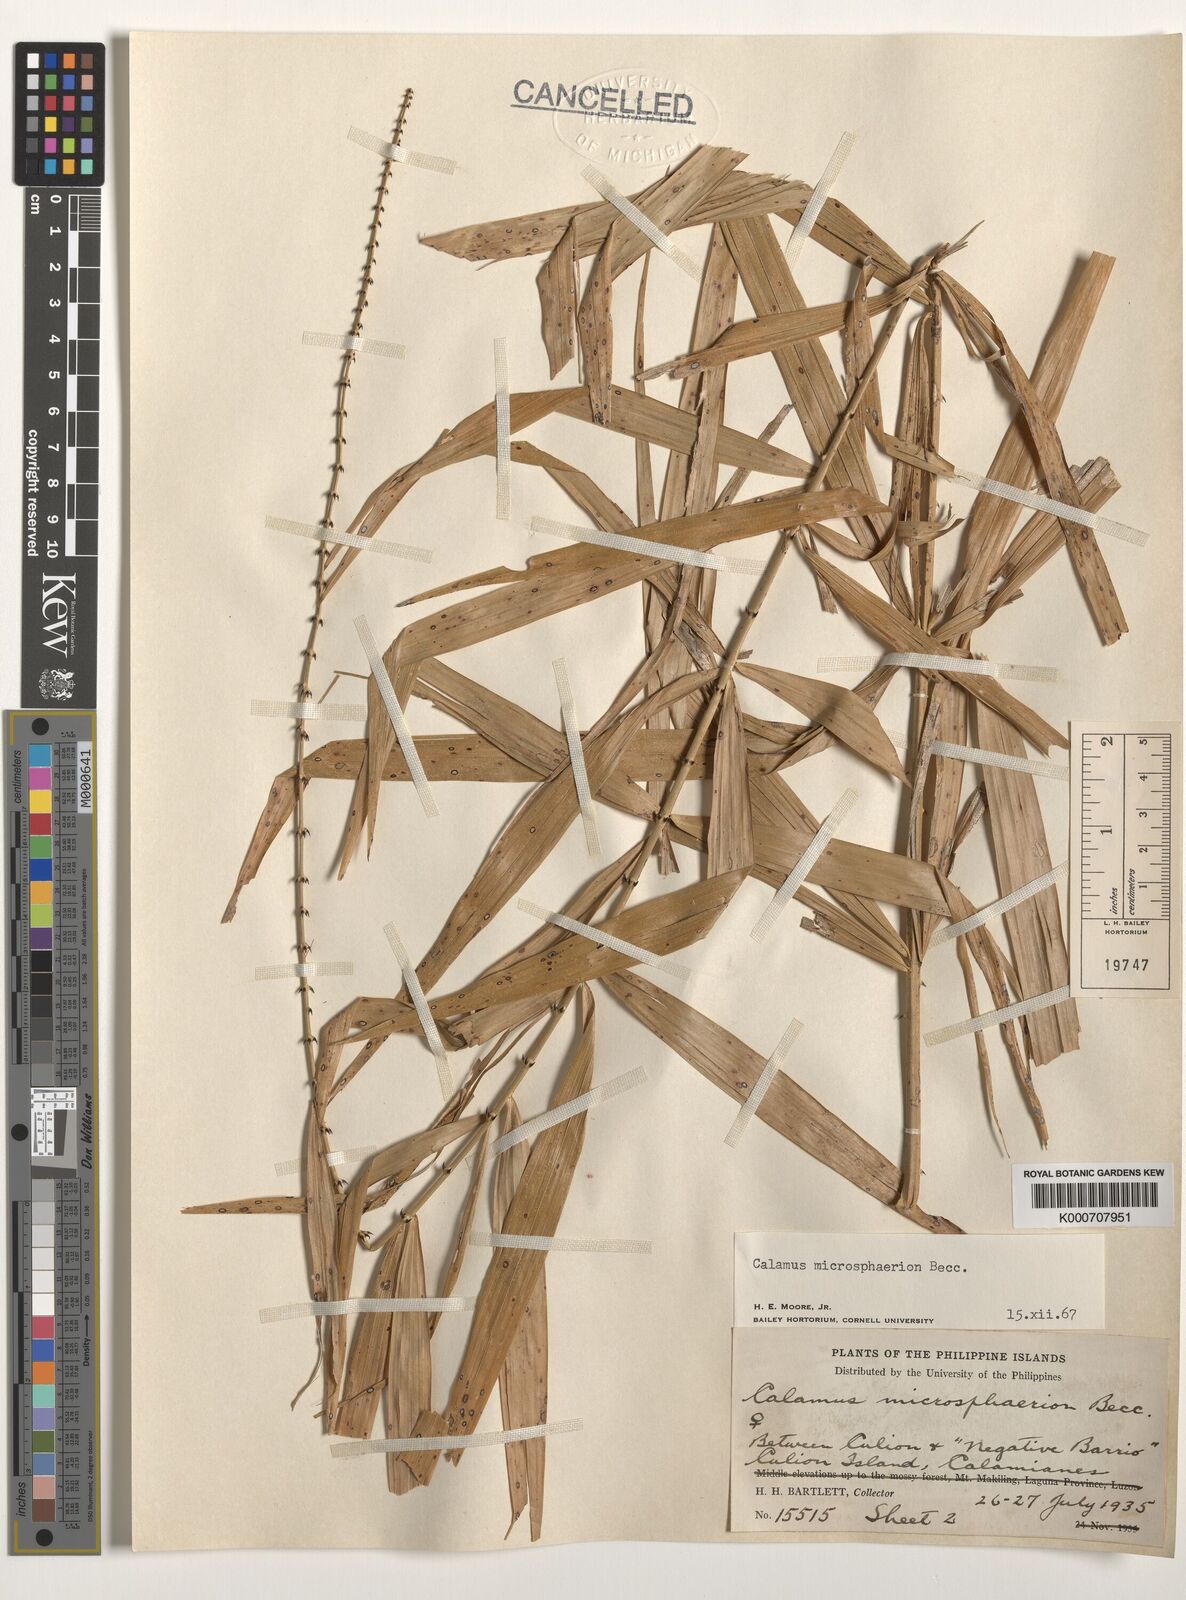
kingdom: Plantae
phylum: Tracheophyta
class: Liliopsida
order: Arecales
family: Arecaceae
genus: Calamus
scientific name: Calamus microsphaerion
